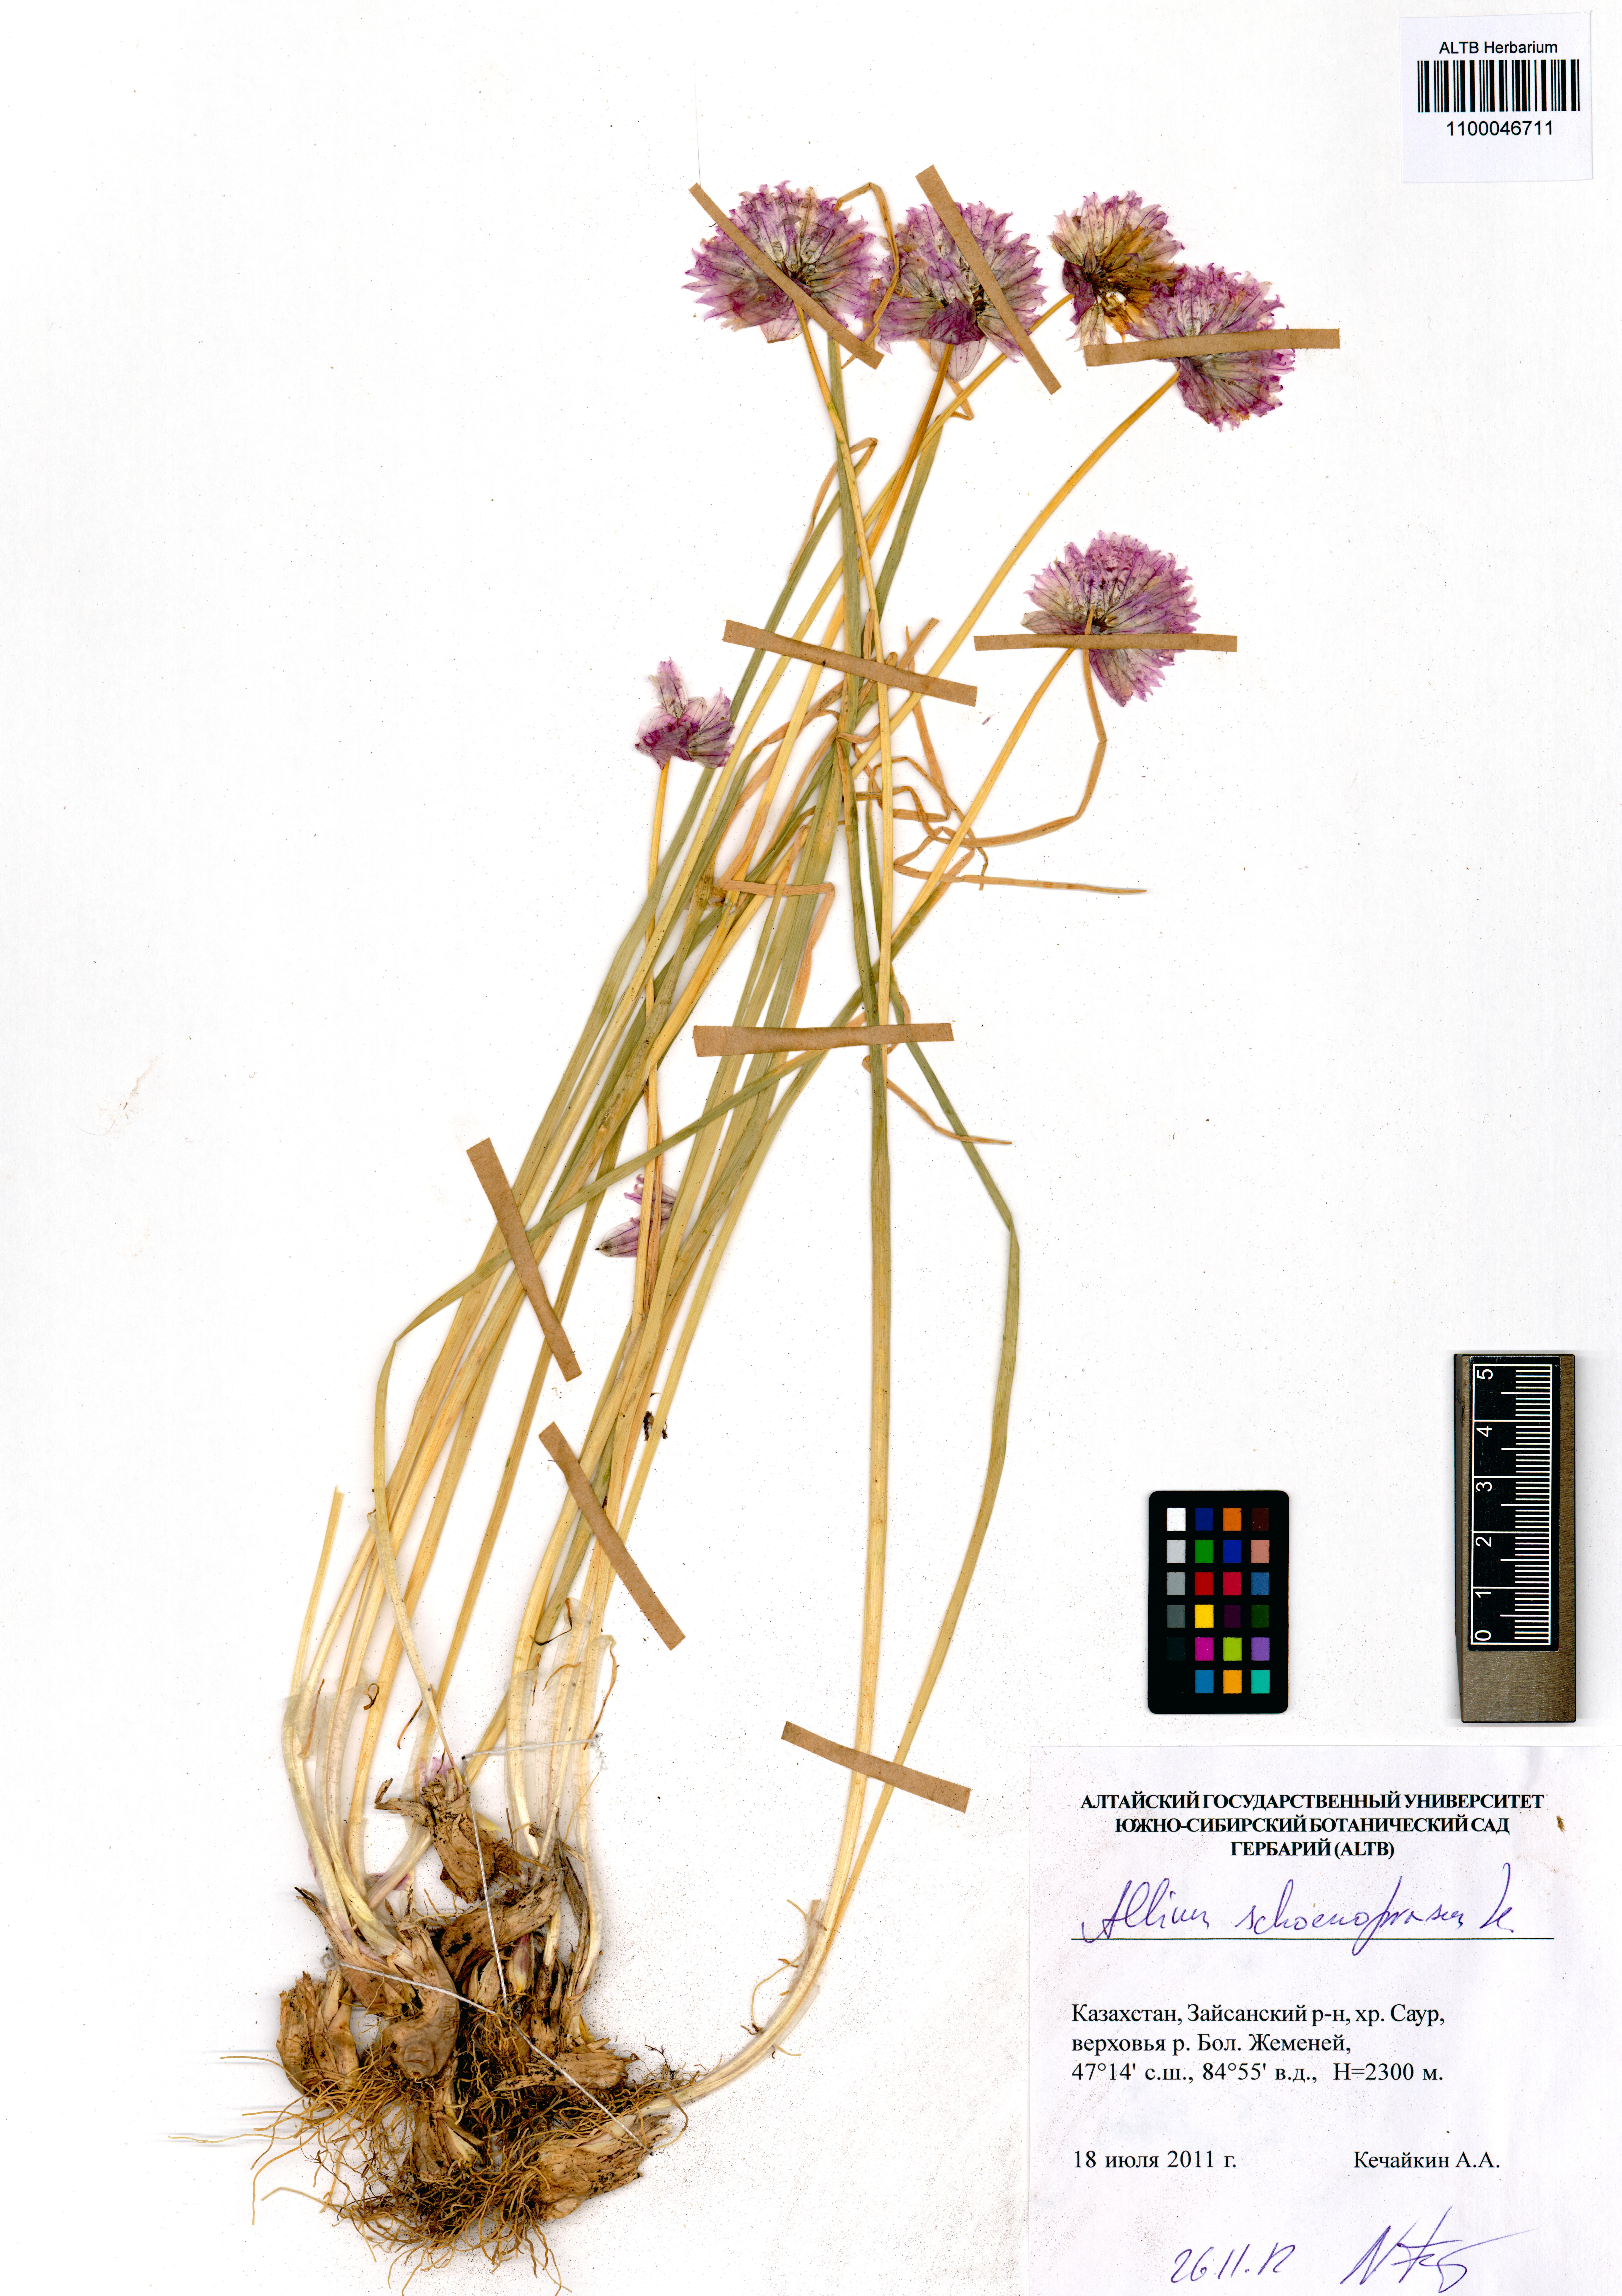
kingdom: Plantae
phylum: Tracheophyta
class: Liliopsida
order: Asparagales
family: Amaryllidaceae
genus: Allium
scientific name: Allium schoenoprasum
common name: Chives
